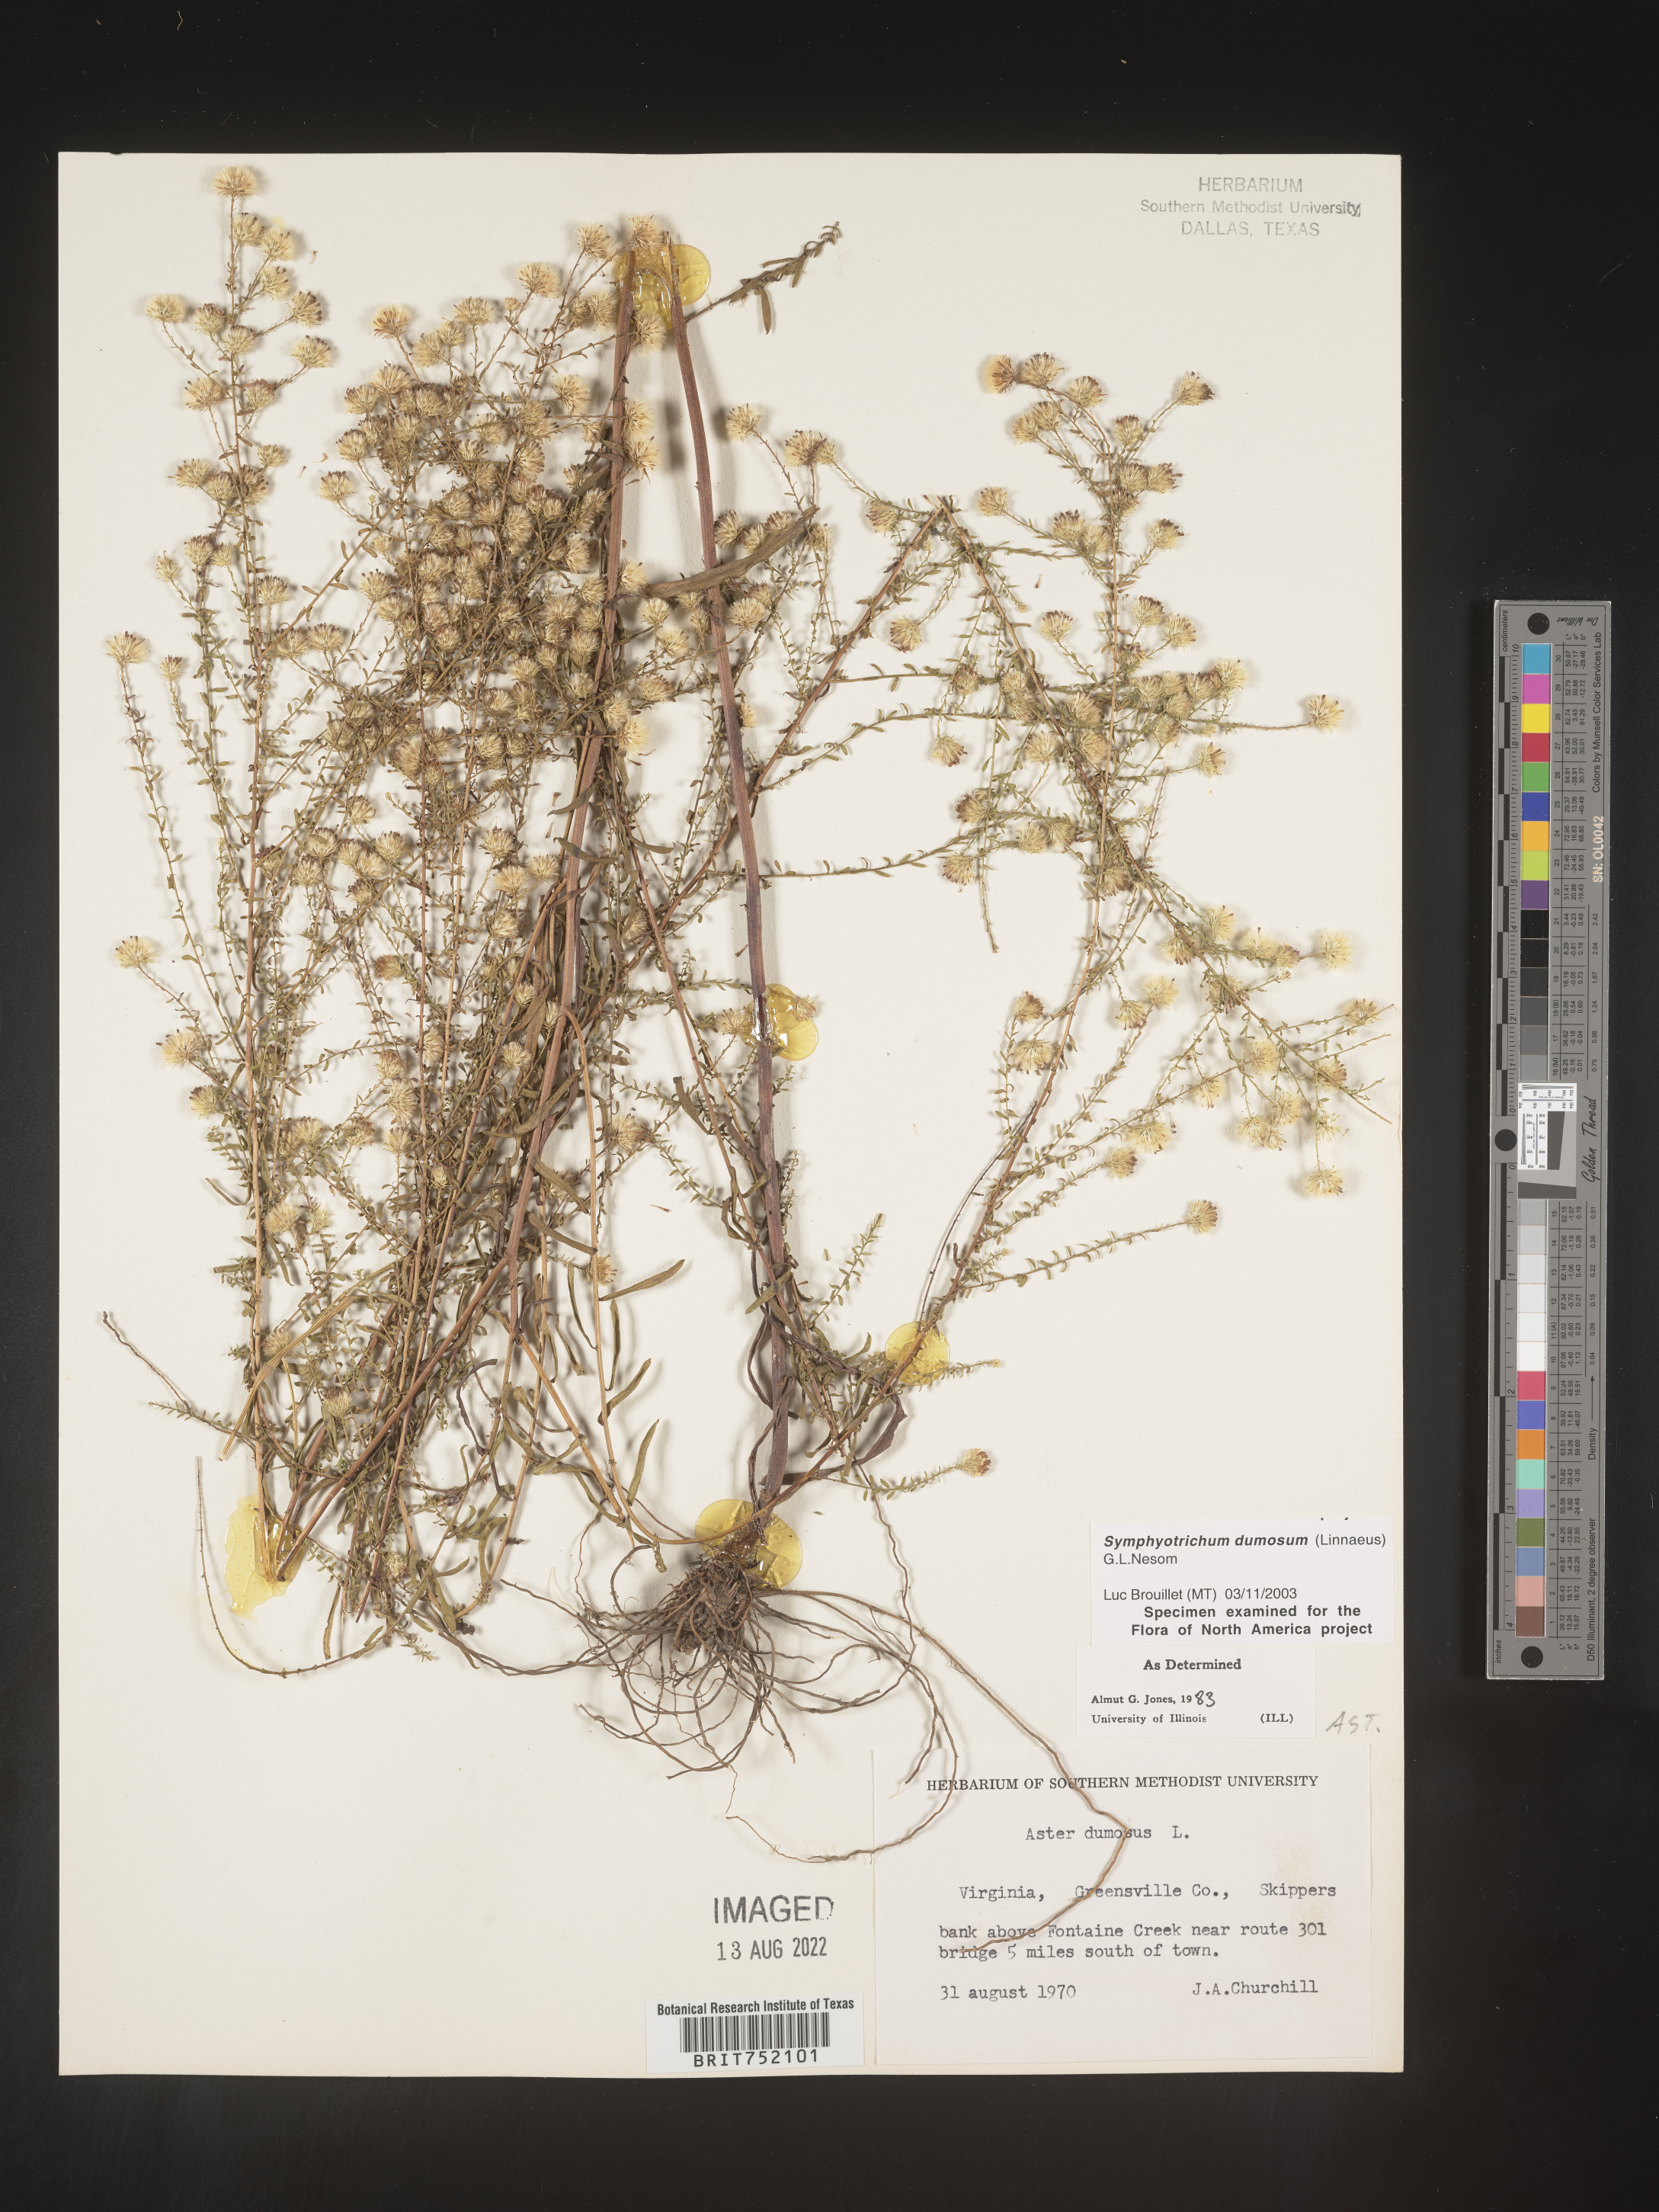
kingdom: Plantae
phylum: Tracheophyta
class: Magnoliopsida
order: Asterales
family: Asteraceae
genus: Symphyotrichum
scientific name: Symphyotrichum dumosum
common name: Bushy aster
